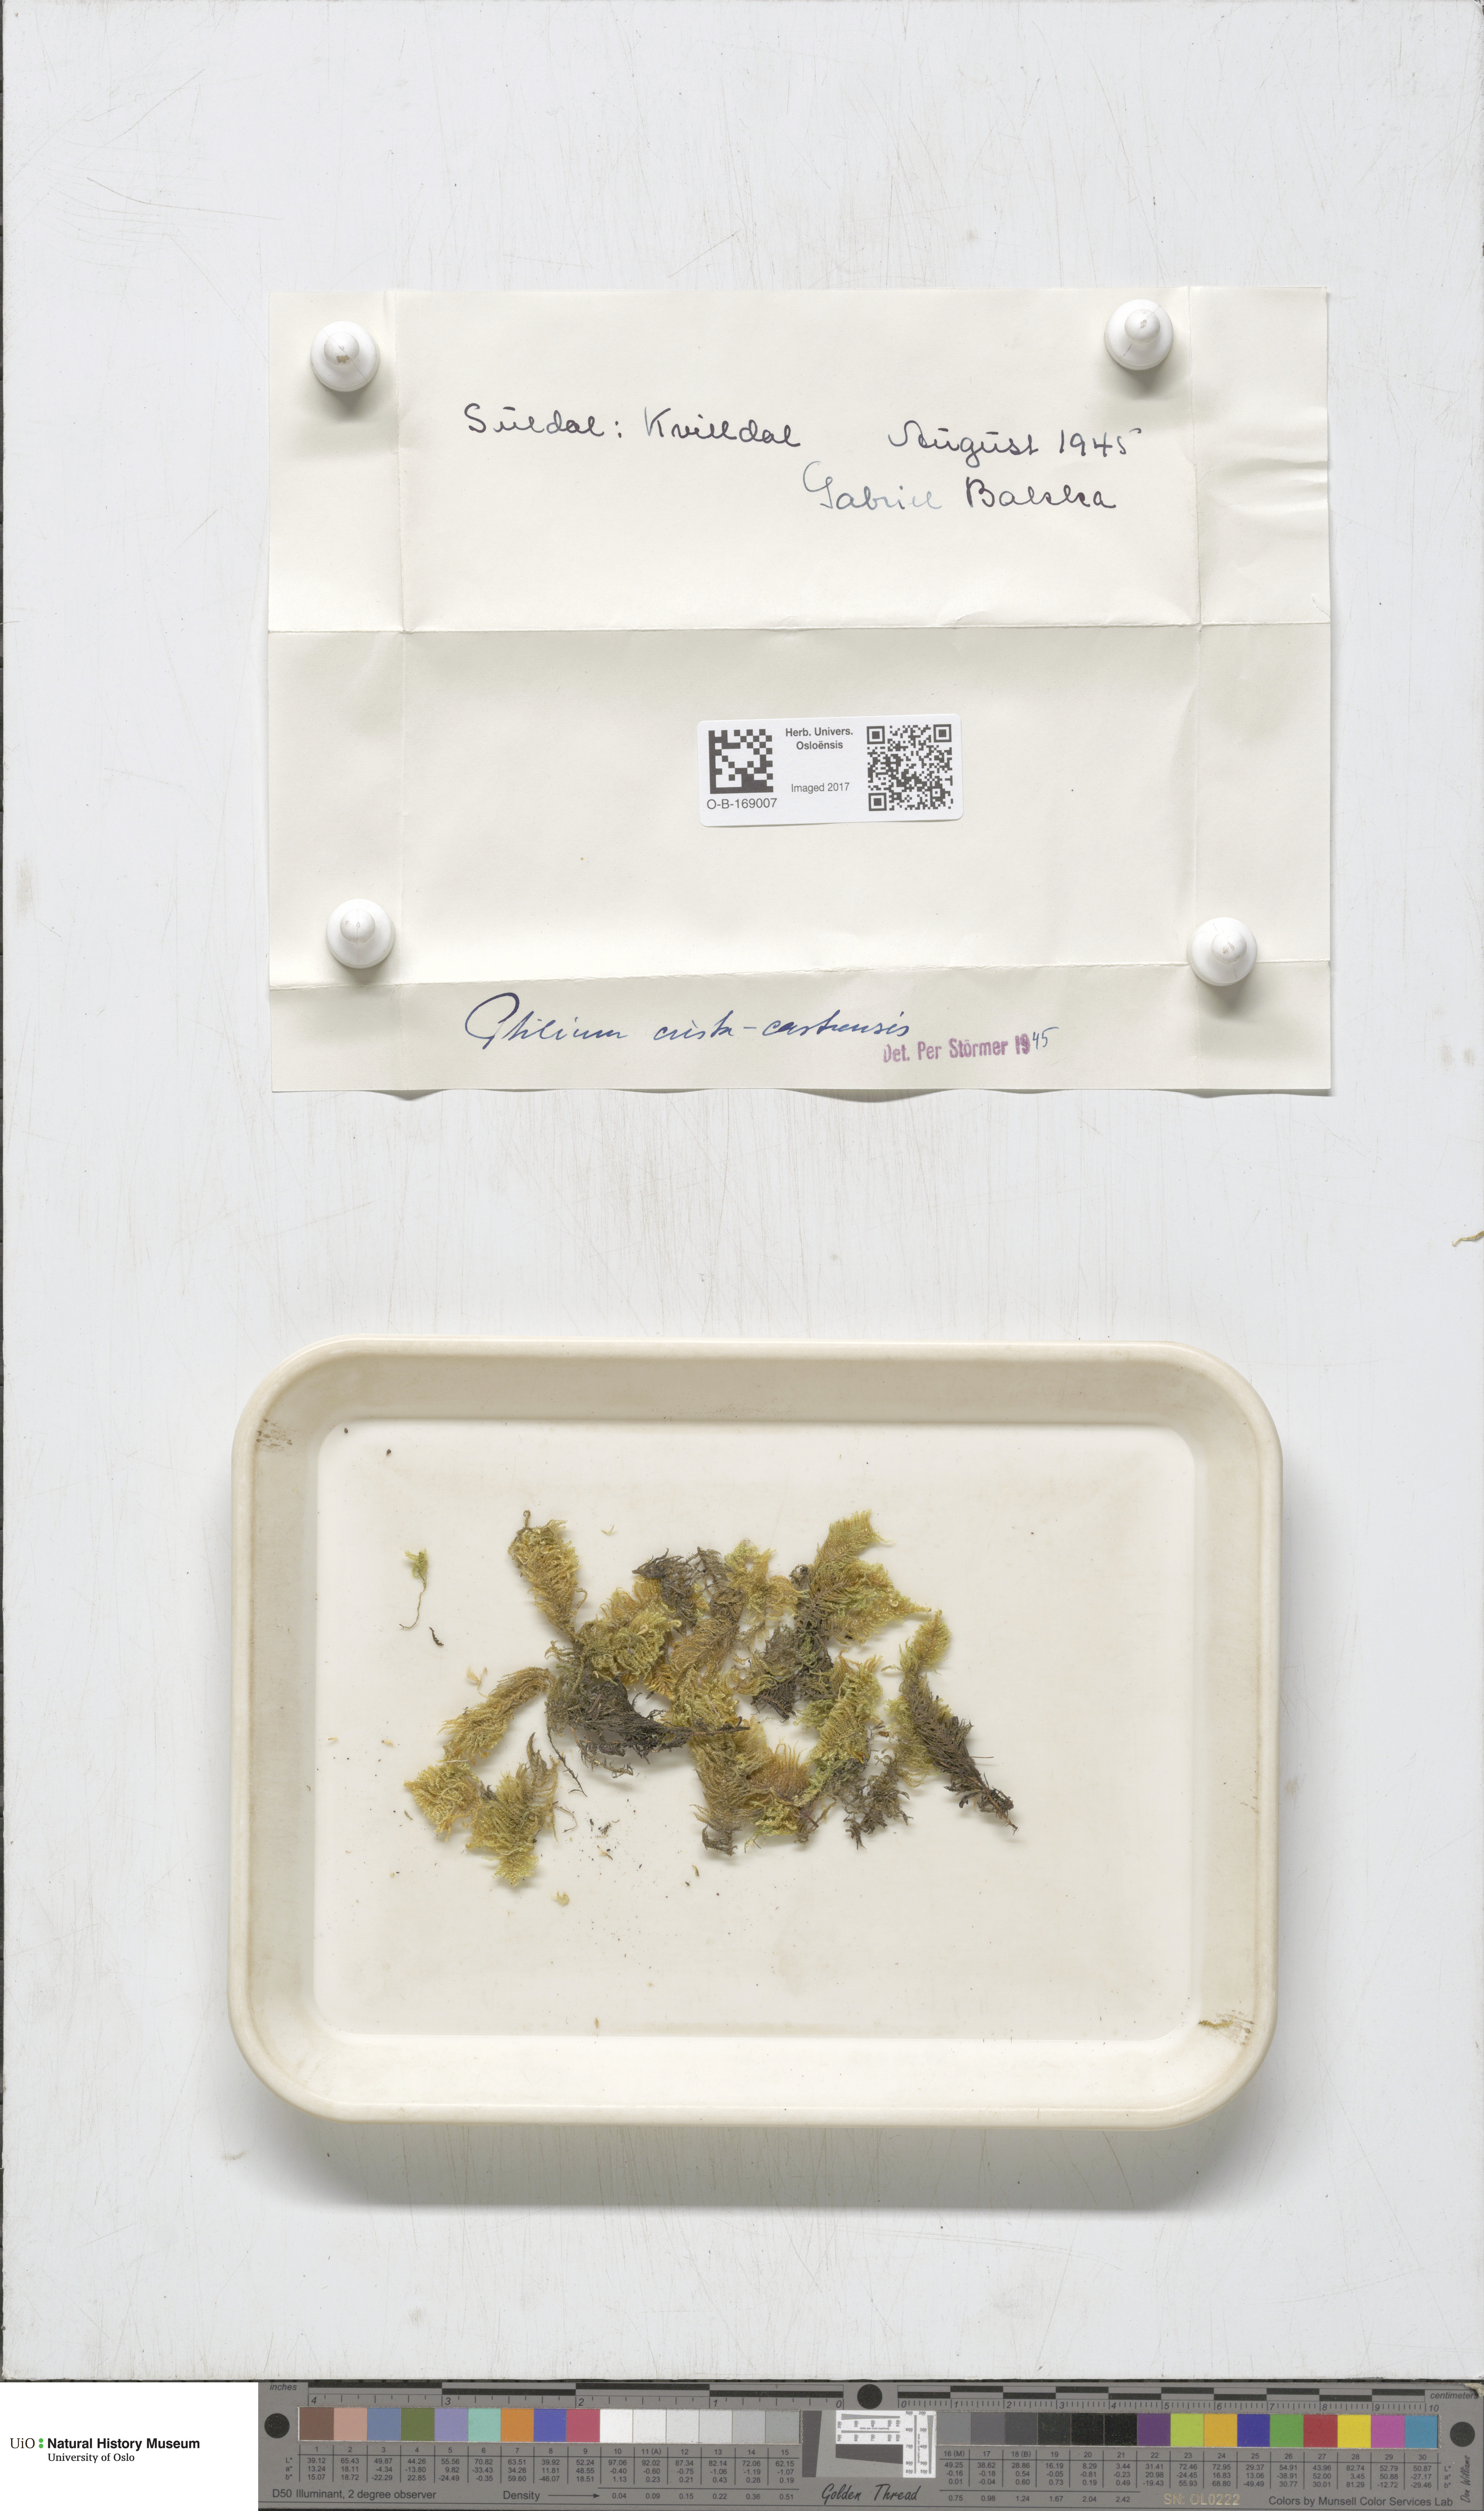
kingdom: Plantae
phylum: Bryophyta
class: Bryopsida
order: Hypnales
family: Pylaisiaceae
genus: Ptilium
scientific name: Ptilium crista-castrensis
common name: Knight's plume moss
